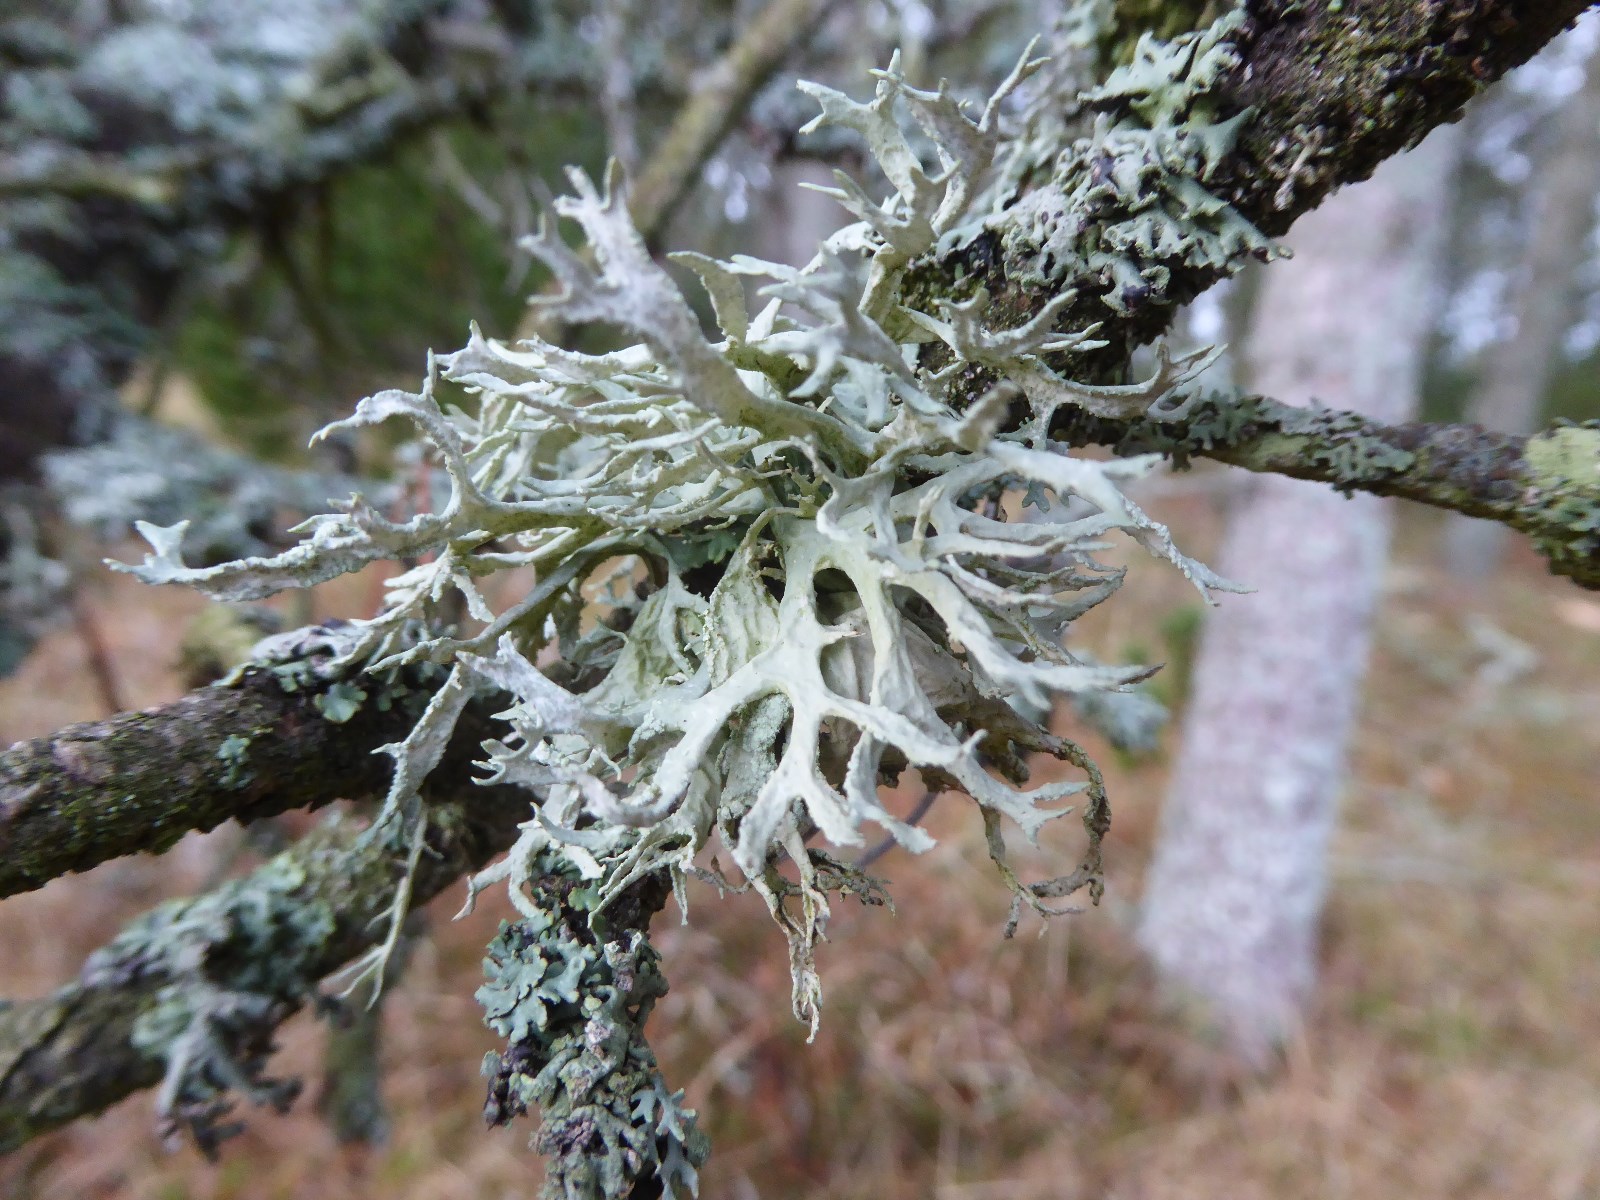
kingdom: Fungi
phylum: Ascomycota
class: Lecanoromycetes
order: Lecanorales
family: Parmeliaceae
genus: Evernia
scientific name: Evernia prunastri
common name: almindelig slåenlav
